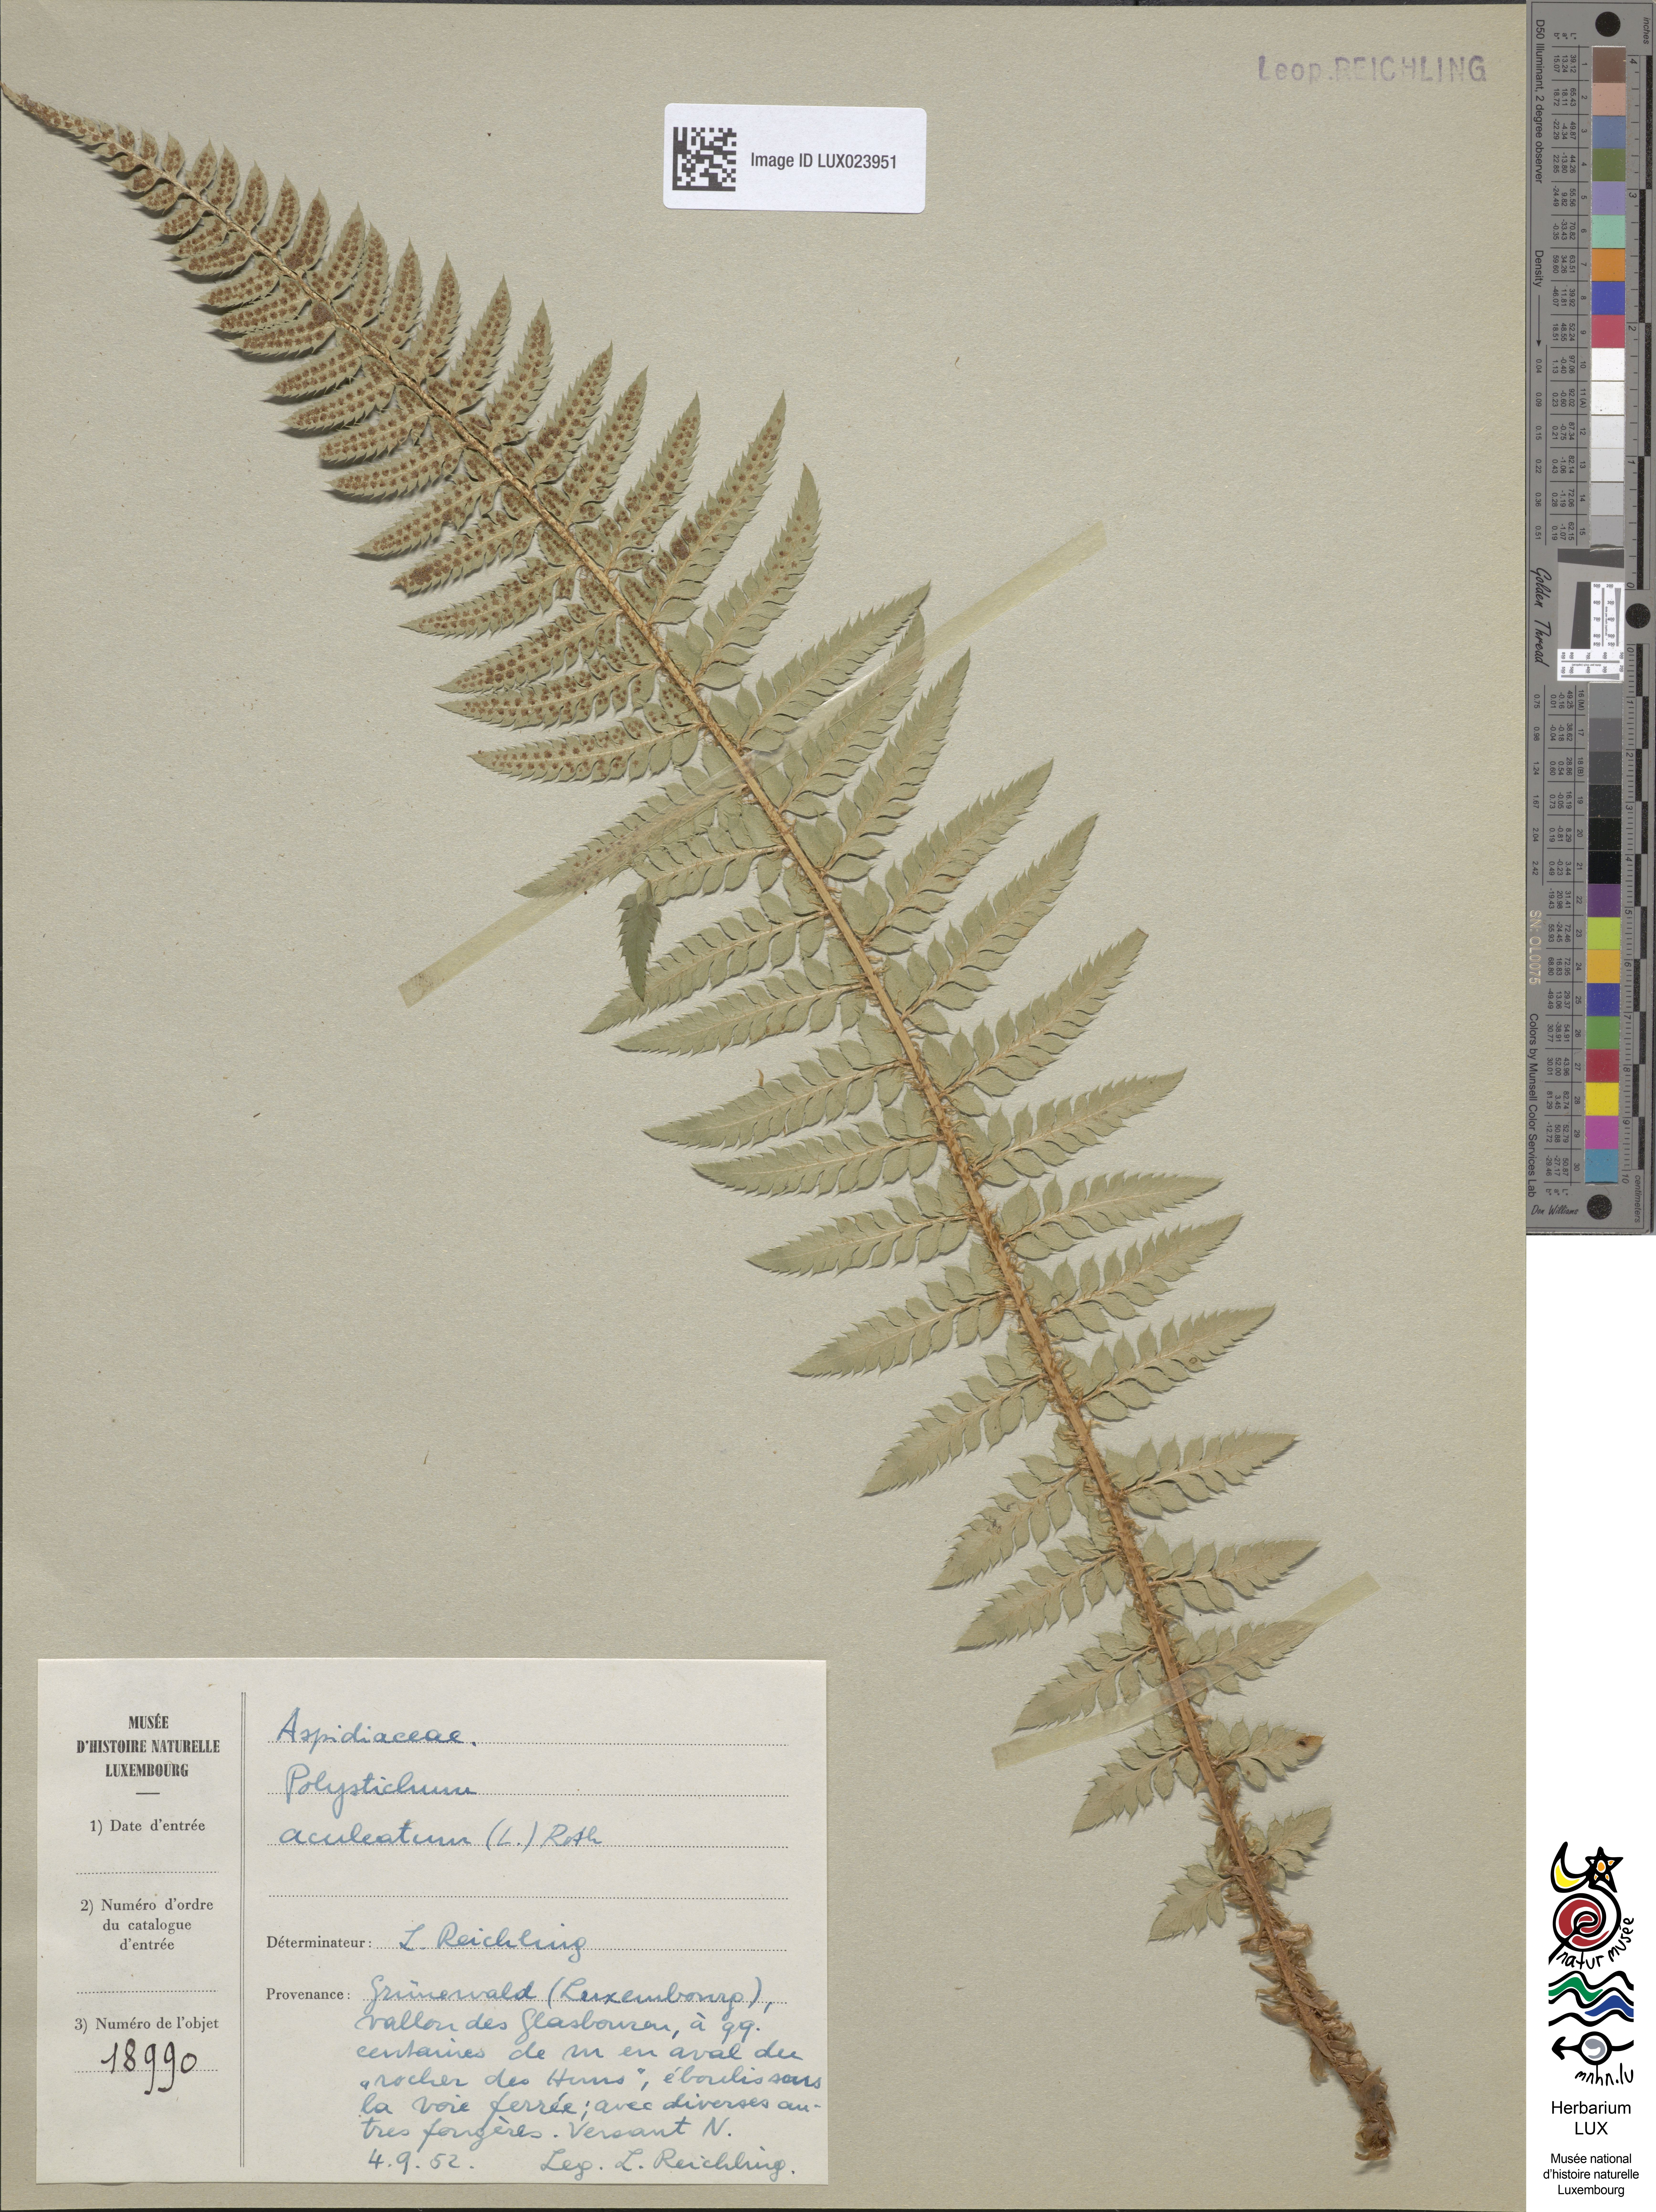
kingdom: Plantae
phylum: Tracheophyta
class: Polypodiopsida
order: Polypodiales
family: Dryopteridaceae
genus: Polystichum
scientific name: Polystichum aculeatum
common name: Hard shield-fern
